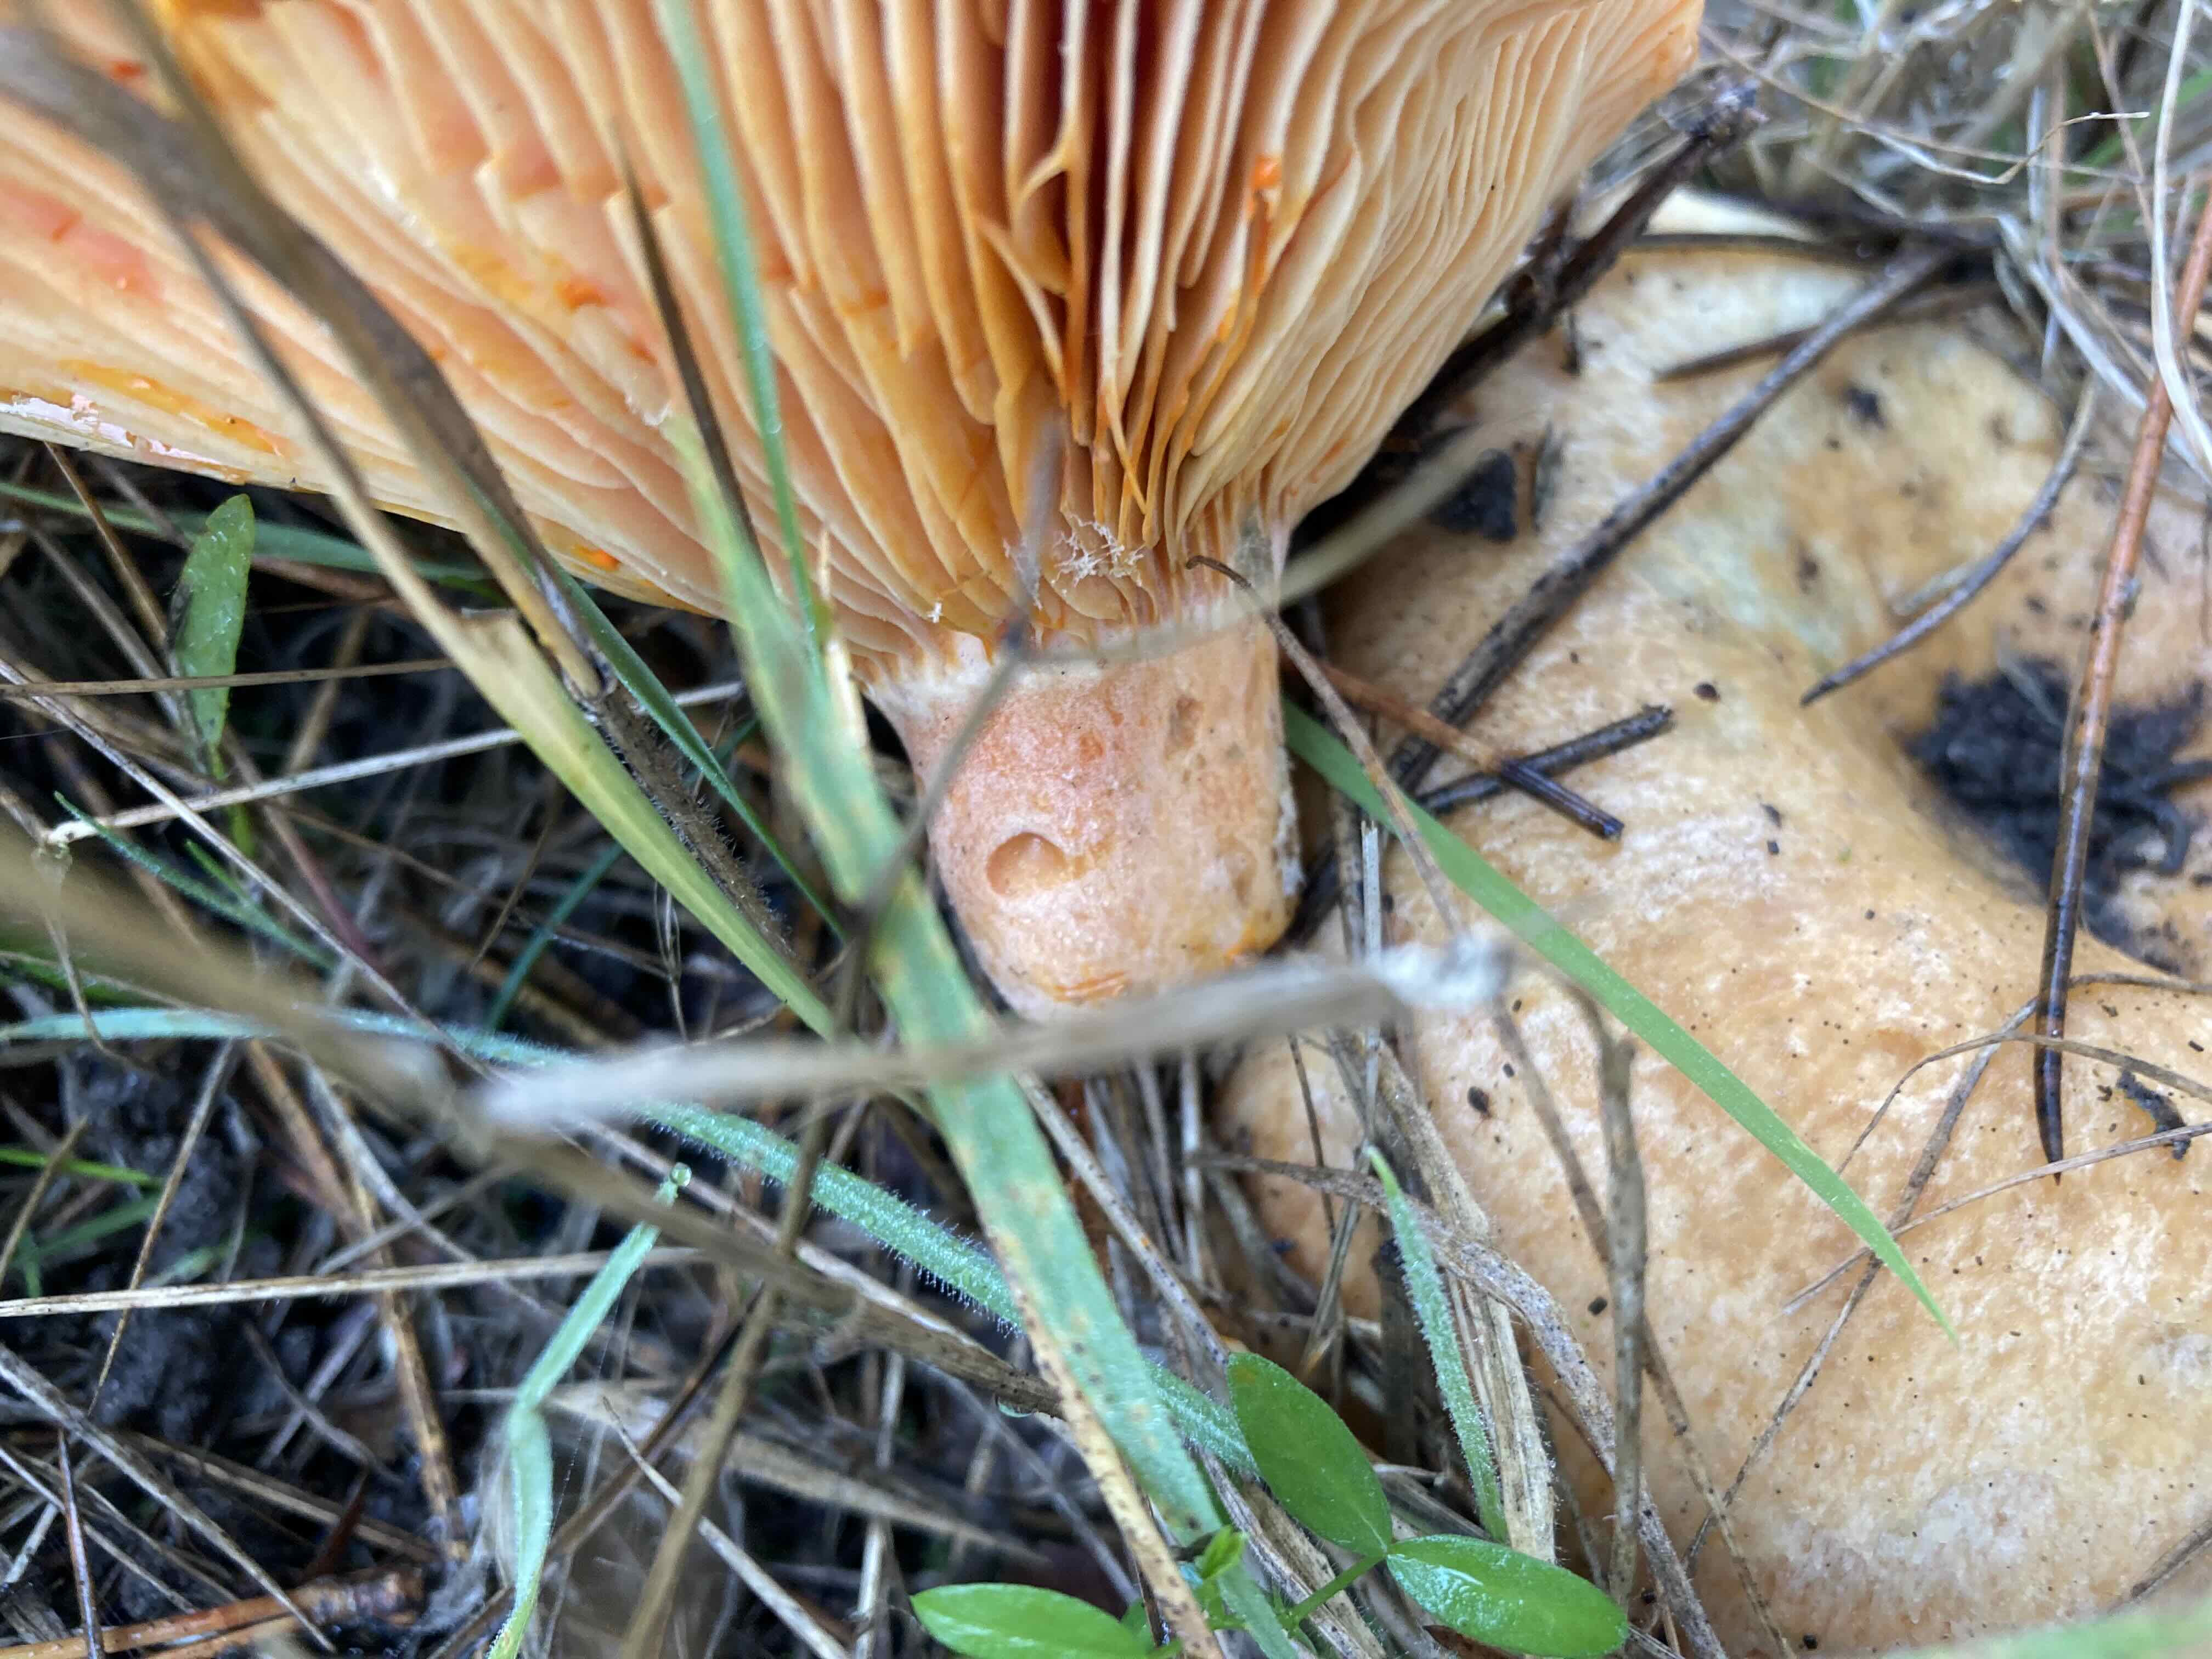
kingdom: Fungi
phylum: Basidiomycota
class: Agaricomycetes
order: Russulales
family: Russulaceae
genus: Lactarius
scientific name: Lactarius deliciosus
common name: velsmagende mælkehat
